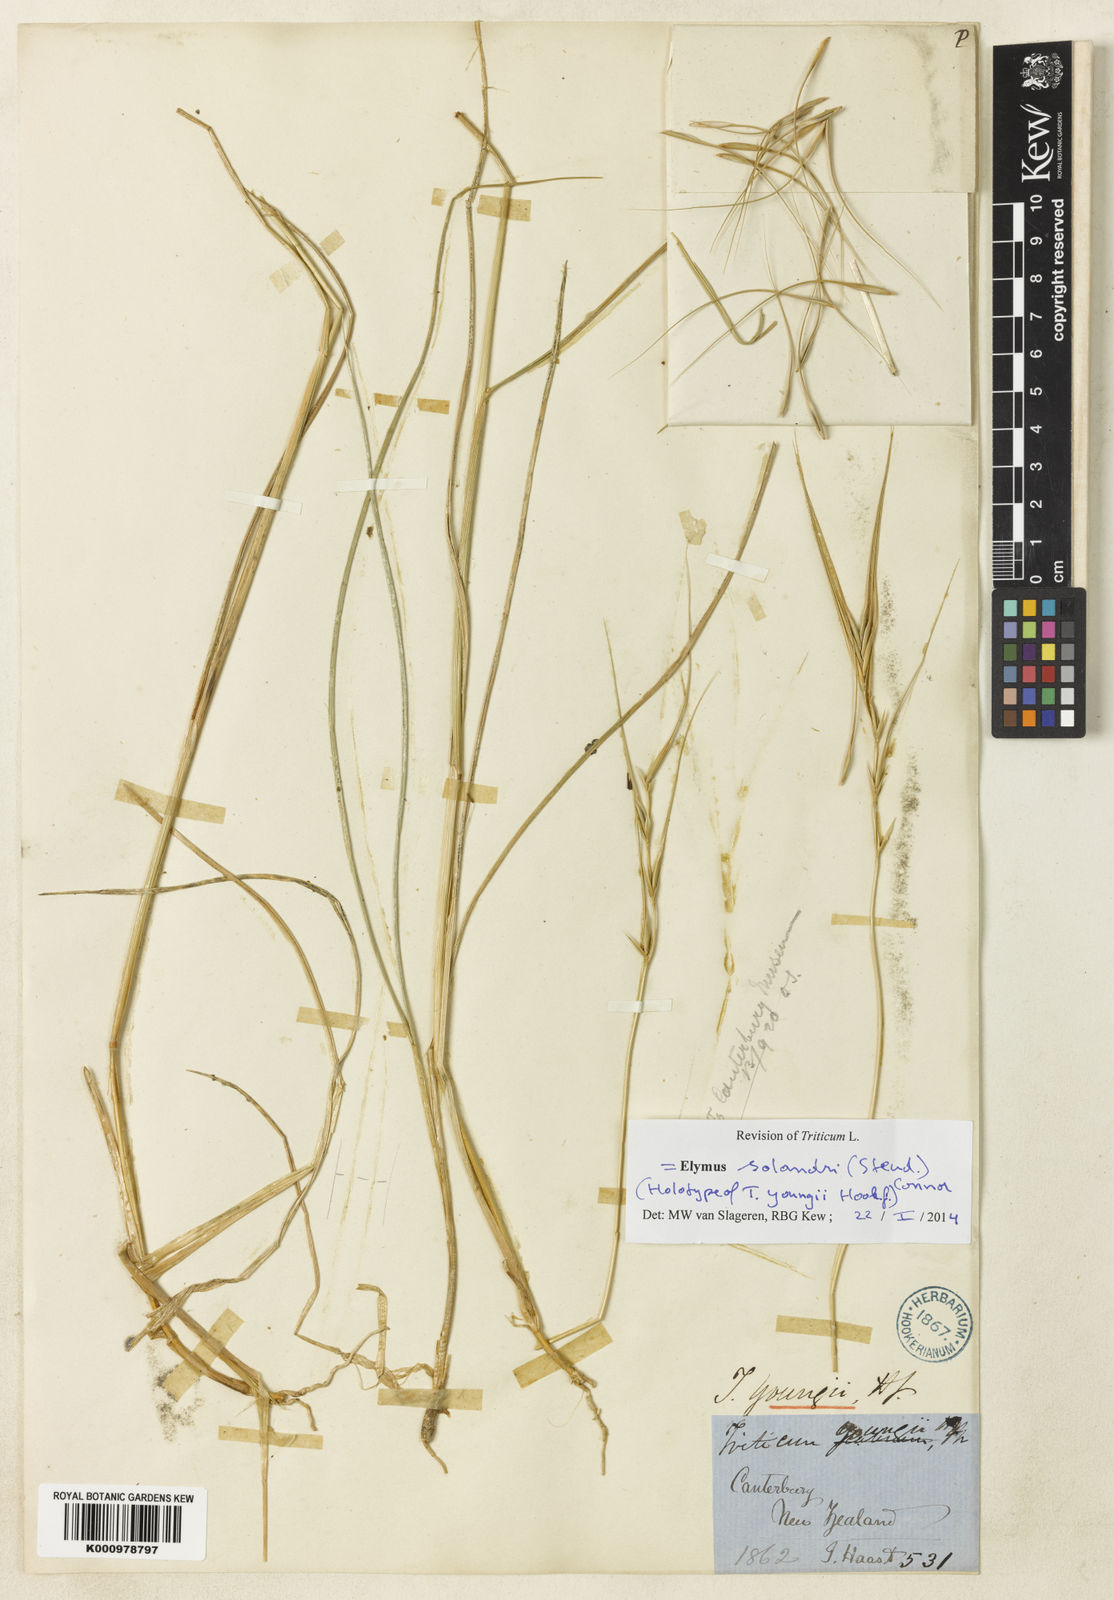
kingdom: Plantae
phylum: Tracheophyta
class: Liliopsida
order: Poales
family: Poaceae
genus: Anthosachne
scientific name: Anthosachne solandri
